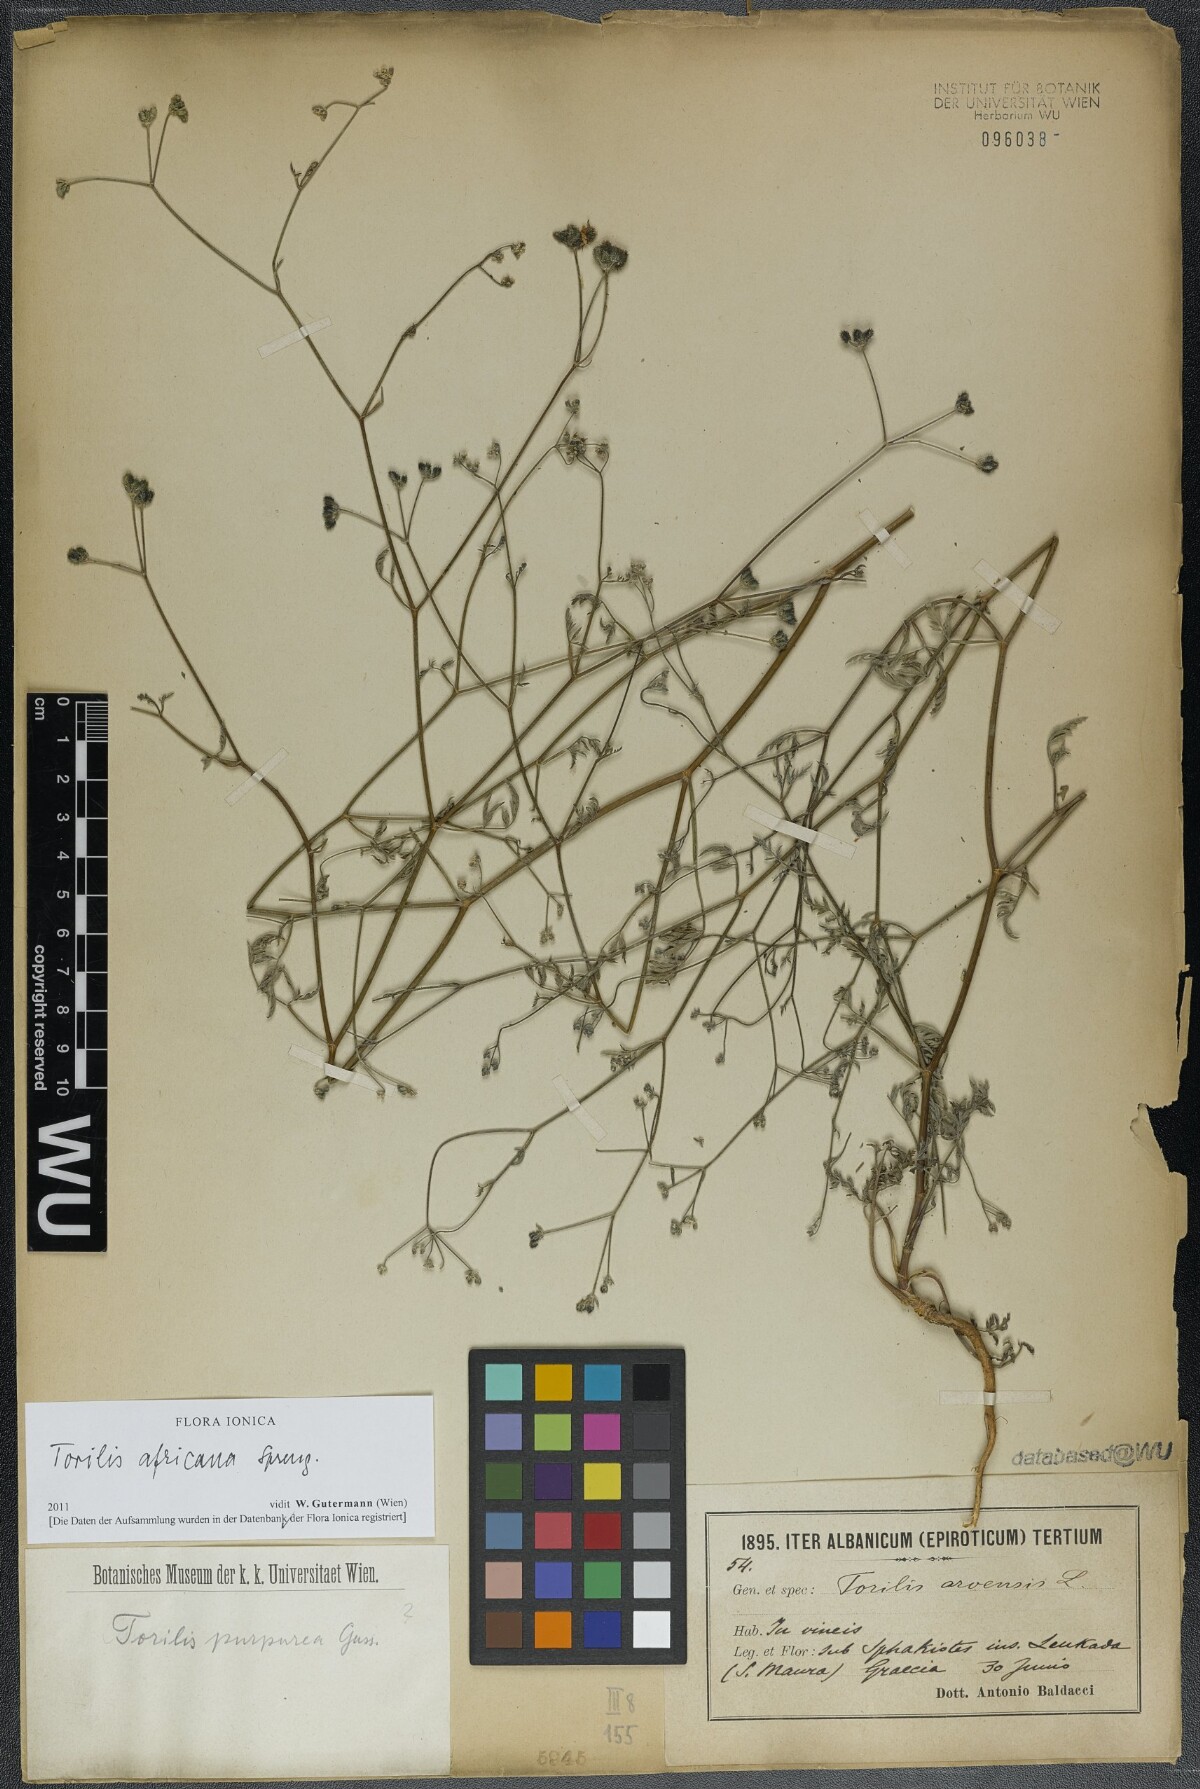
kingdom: Plantae
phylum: Tracheophyta
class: Magnoliopsida
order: Apiales
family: Apiaceae
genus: Torilis
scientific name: Torilis africana
